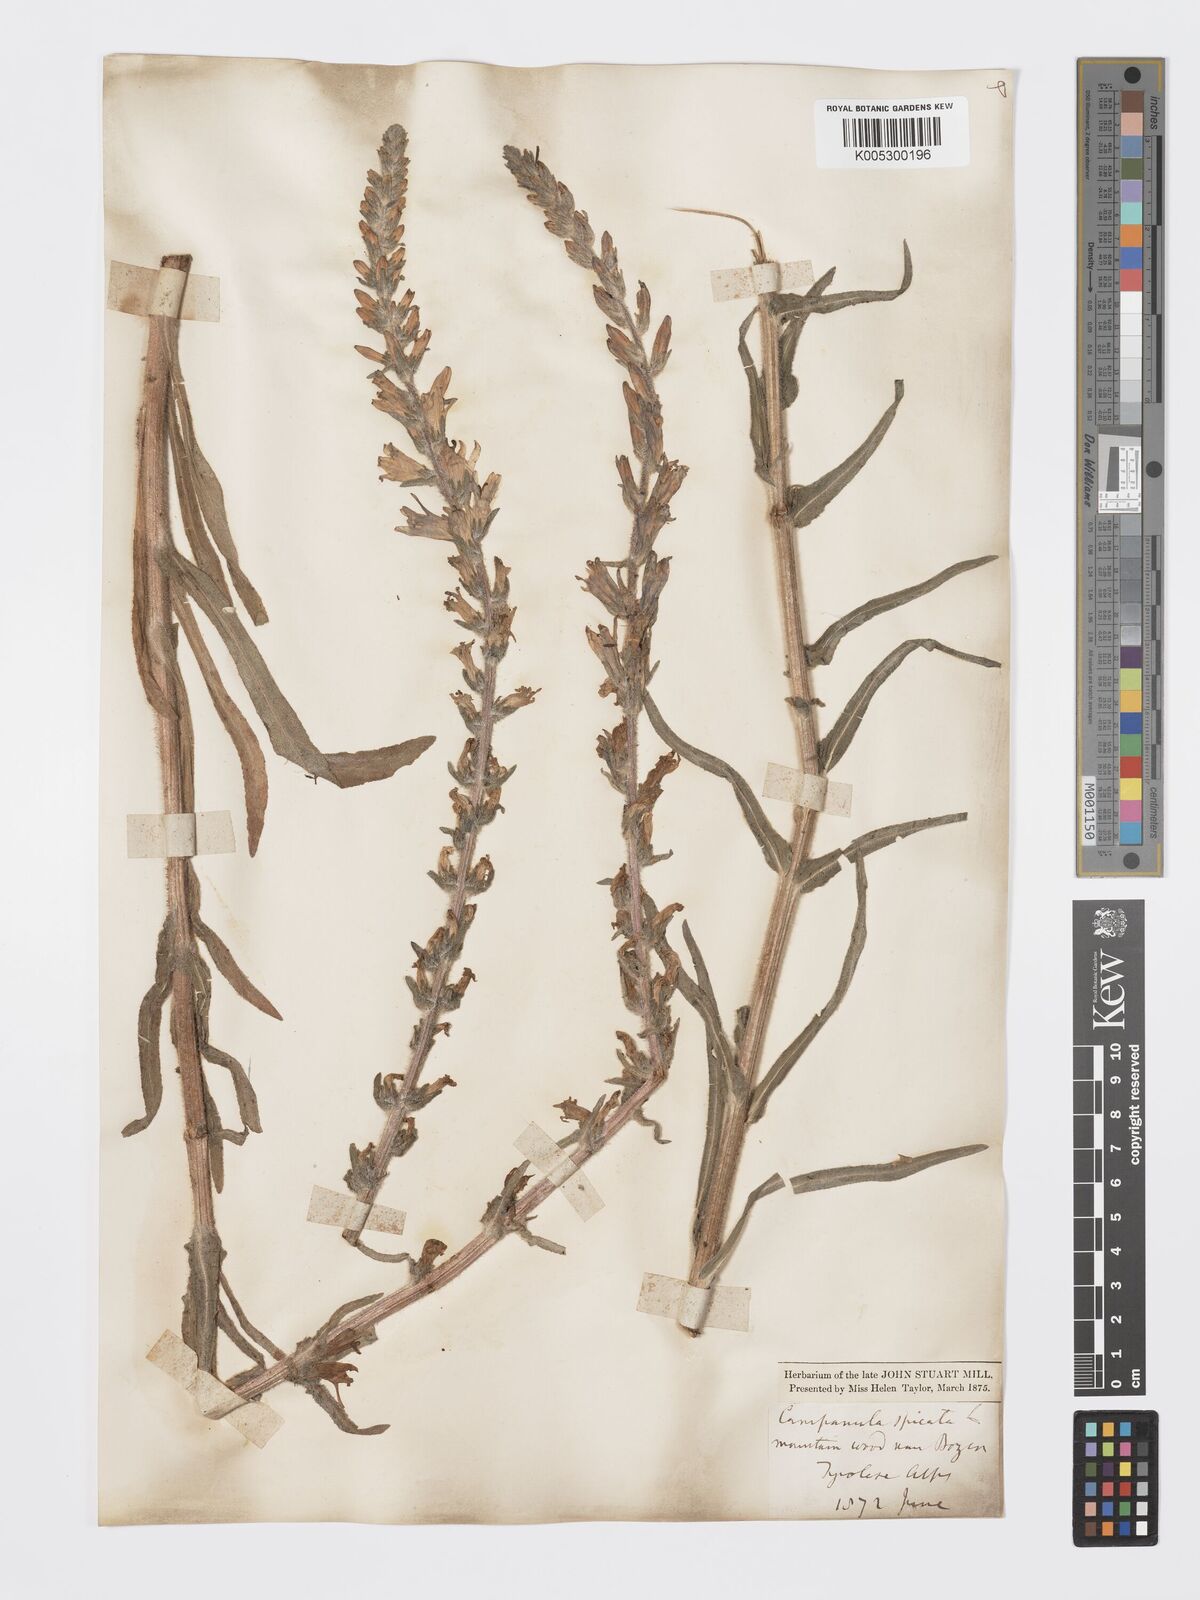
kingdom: Plantae
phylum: Tracheophyta
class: Magnoliopsida
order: Asterales
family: Campanulaceae
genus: Campanula
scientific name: Campanula spicata
